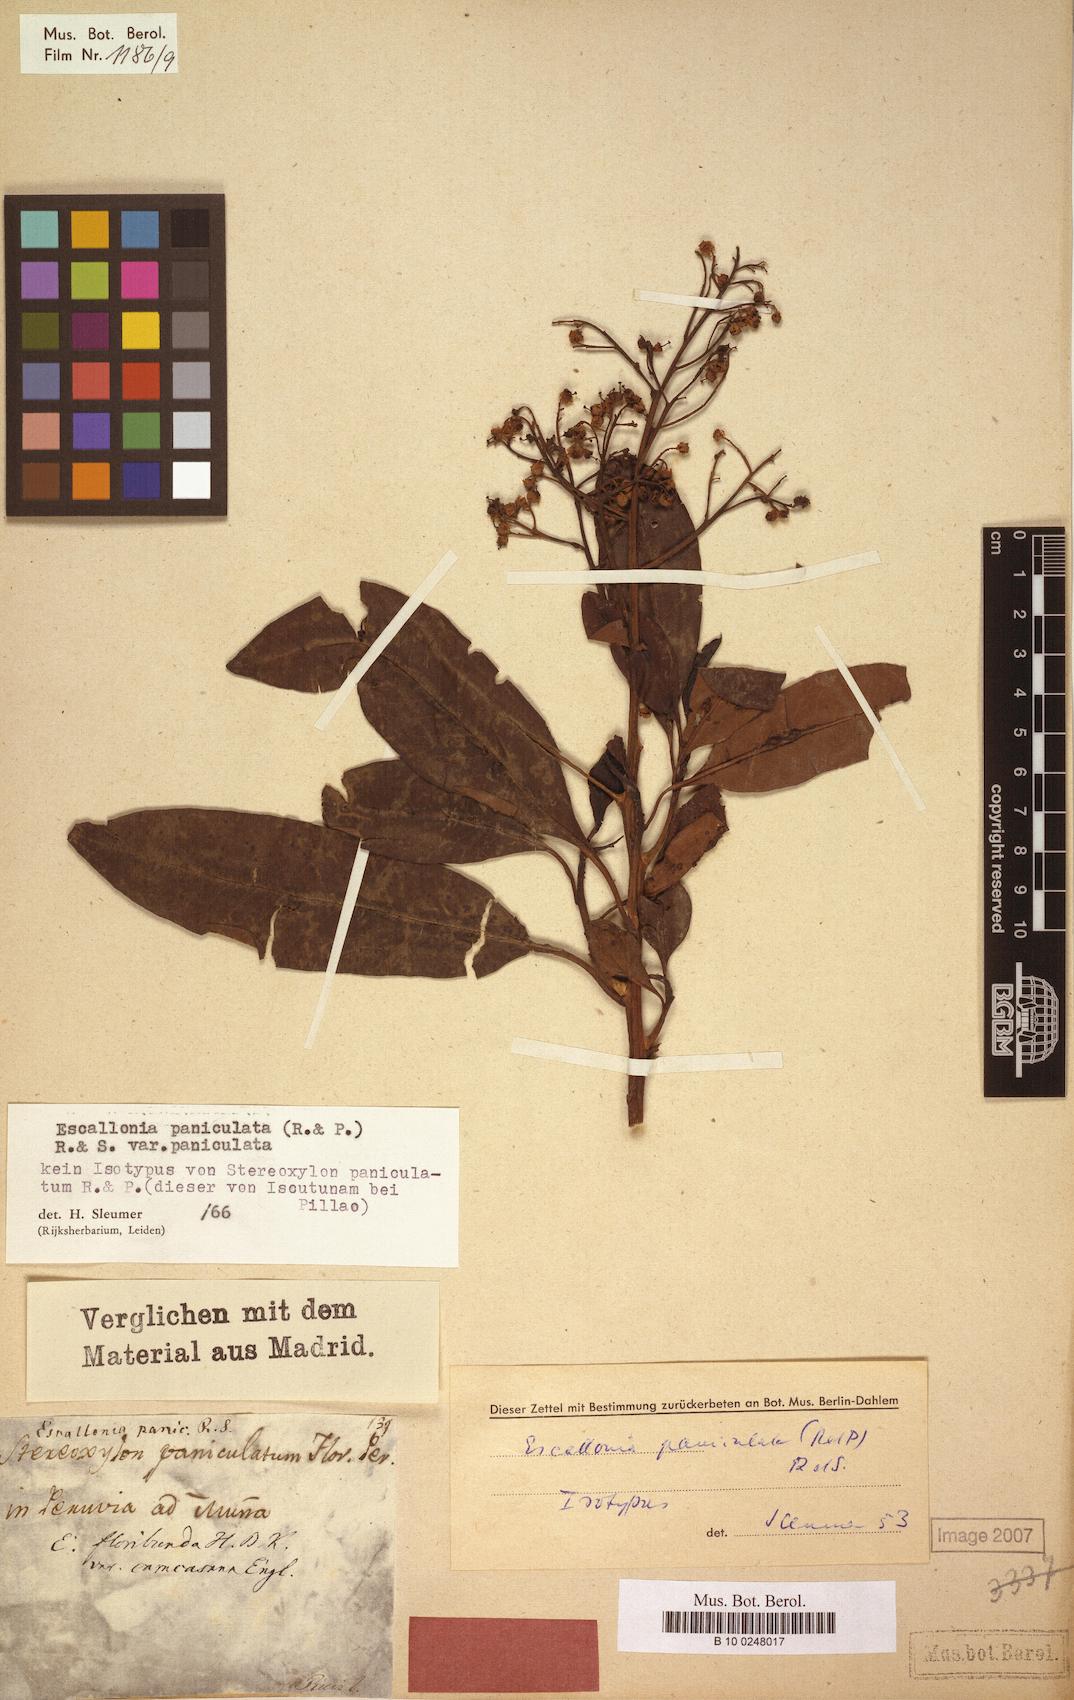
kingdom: Plantae
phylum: Tracheophyta
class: Magnoliopsida
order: Escalloniales
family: Escalloniaceae
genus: Escallonia
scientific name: Escallonia paniculata
